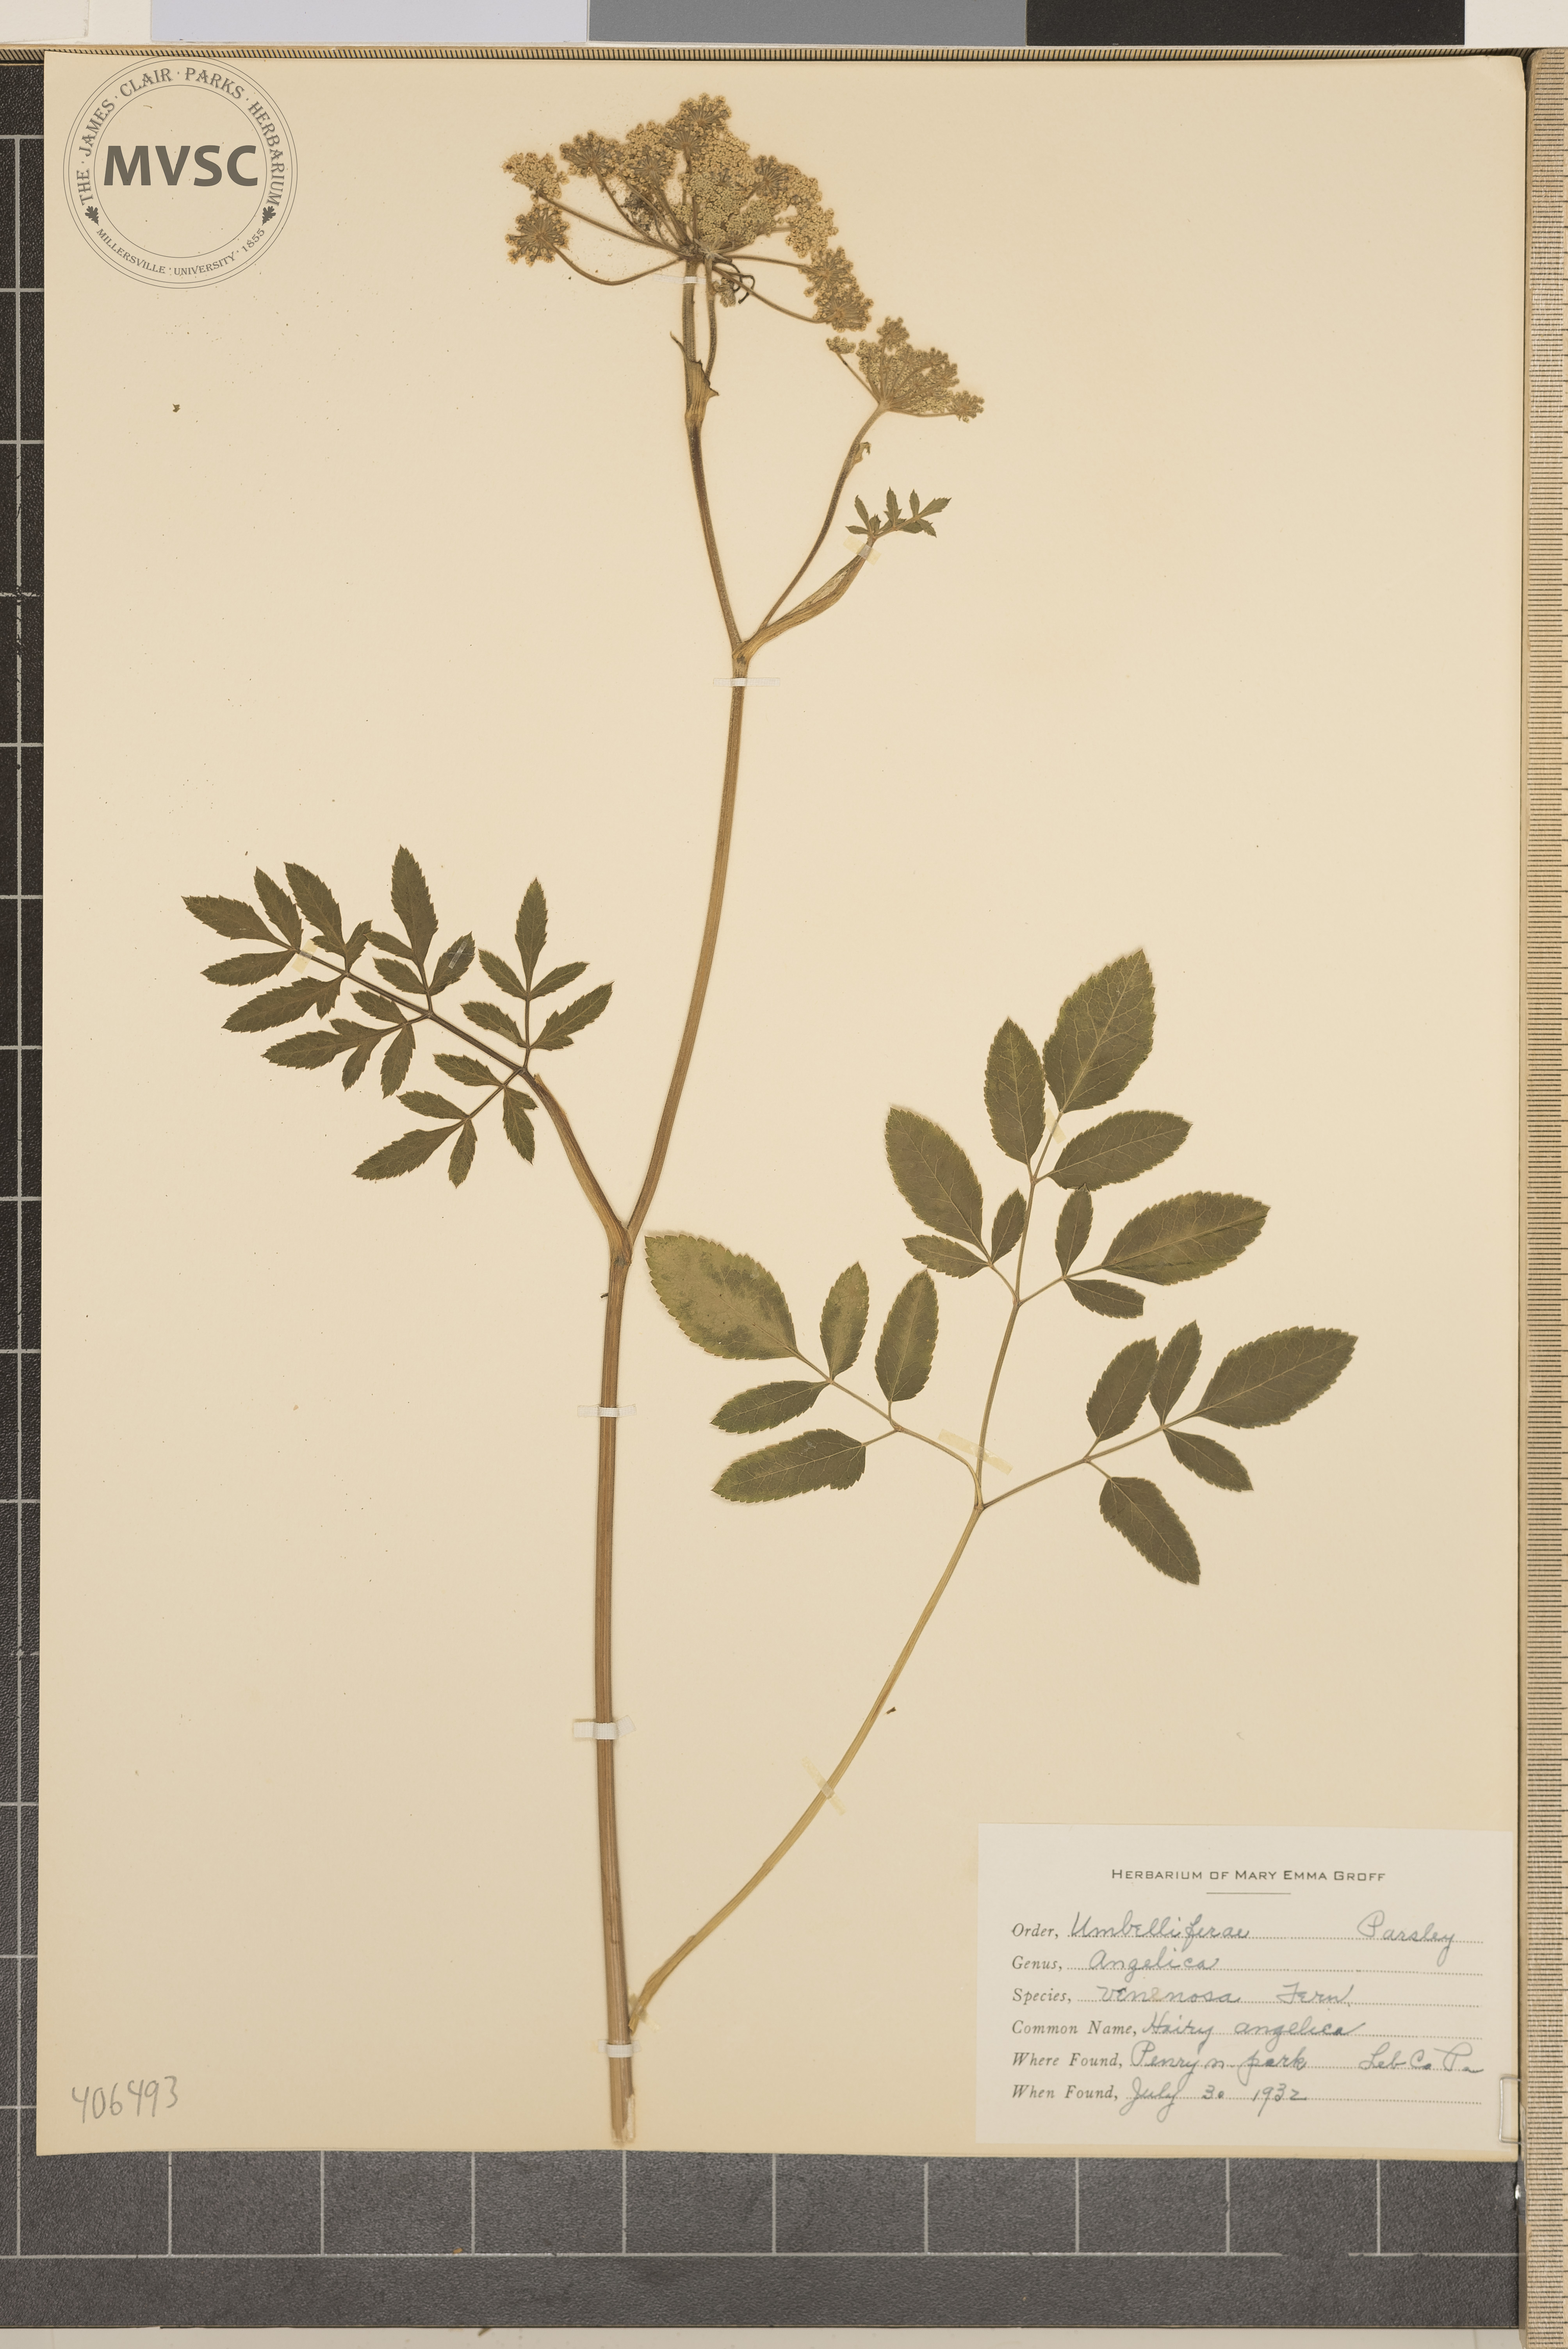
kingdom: Plantae
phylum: Tracheophyta
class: Magnoliopsida
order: Apiales
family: Apiaceae
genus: Angelica
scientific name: Angelica venenosa
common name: Hairy Angelica
